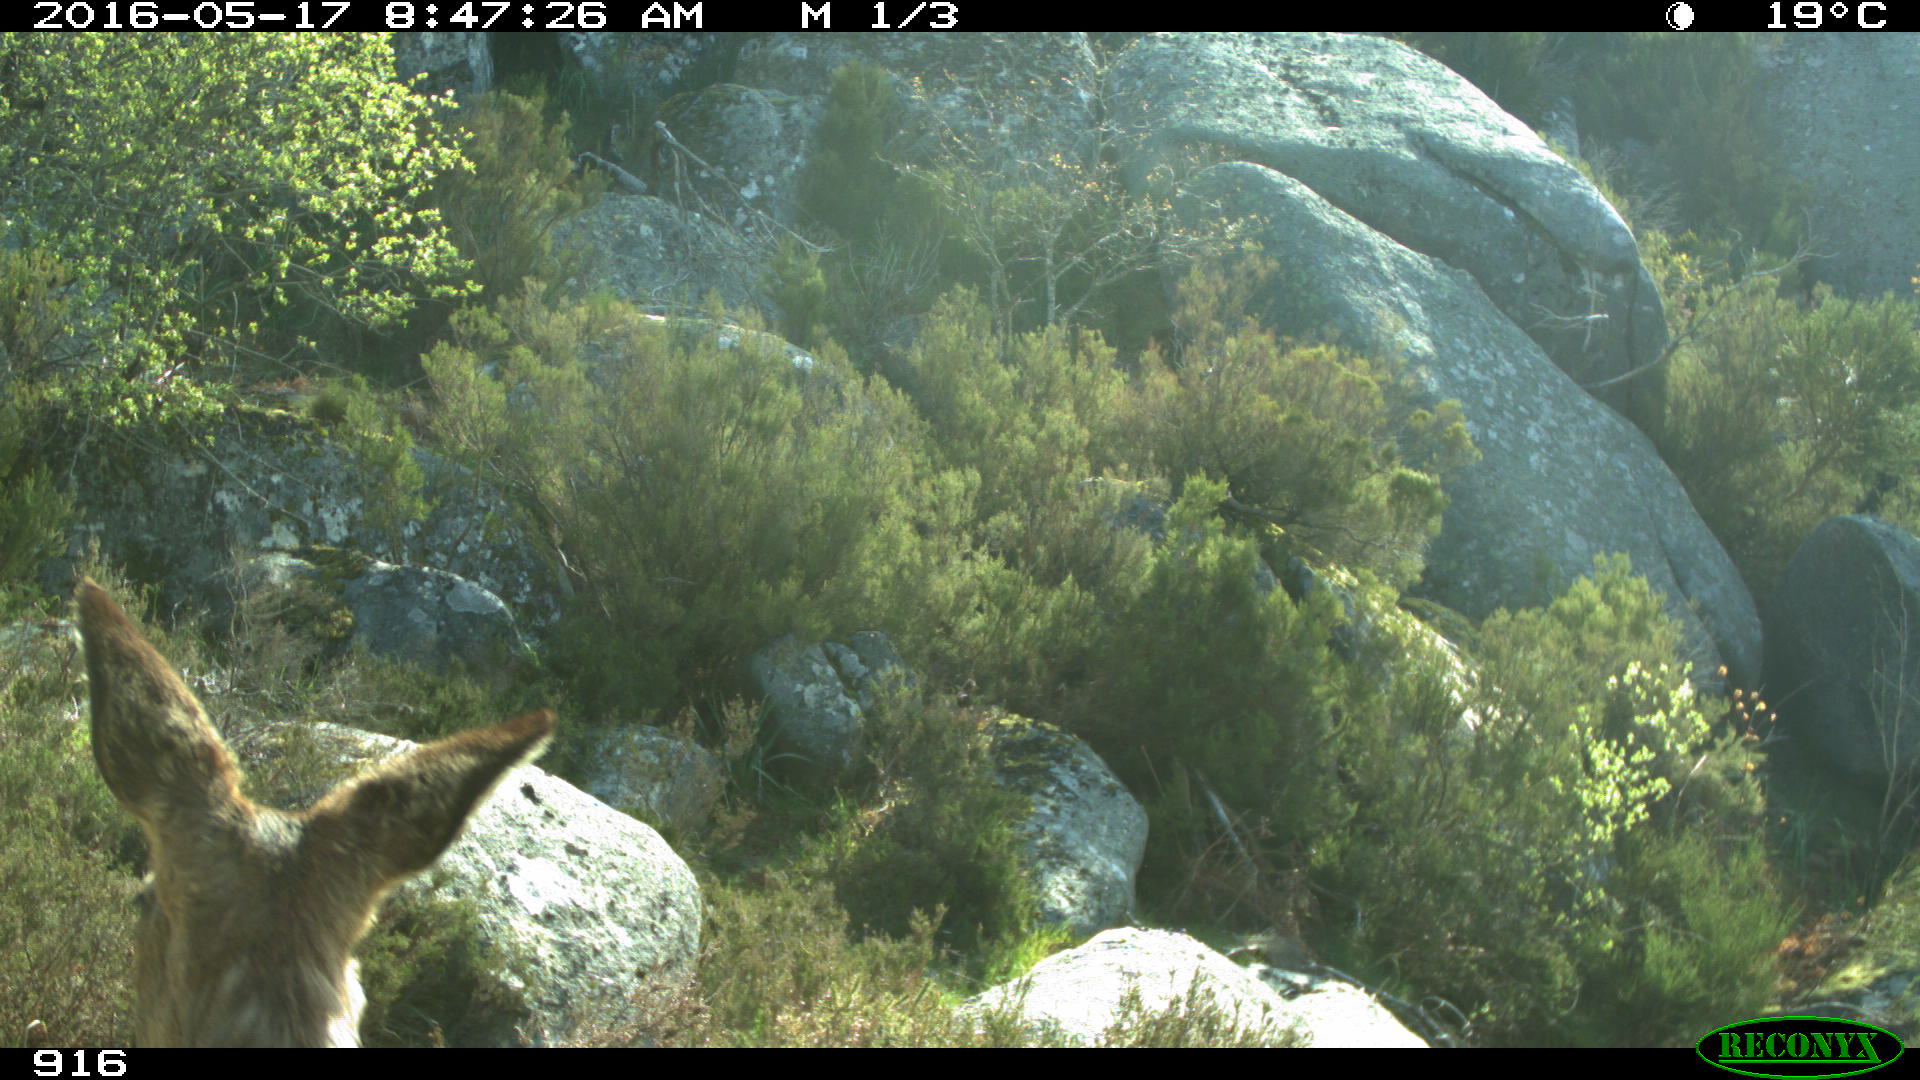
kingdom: Animalia
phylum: Chordata
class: Mammalia
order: Artiodactyla
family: Cervidae
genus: Capreolus
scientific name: Capreolus capreolus
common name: Western roe deer
